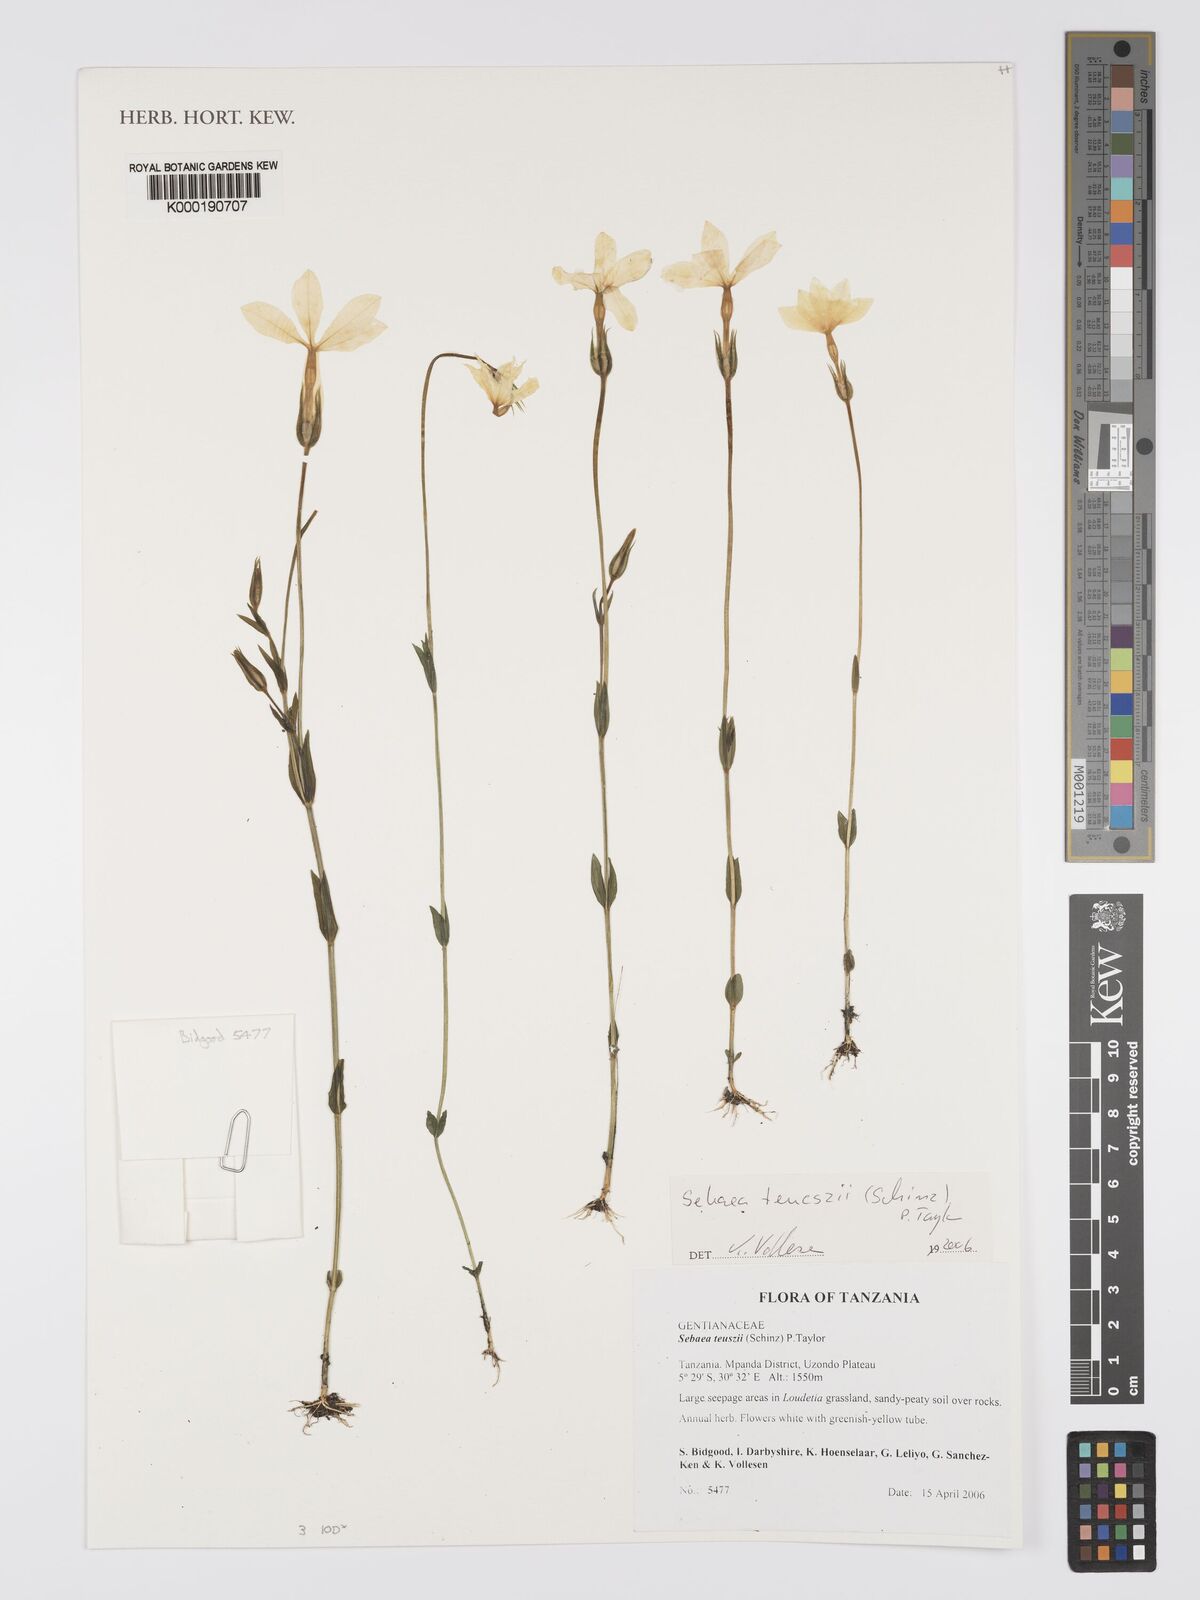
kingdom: Plantae
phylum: Tracheophyta
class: Magnoliopsida
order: Gentianales
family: Gentianaceae
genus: Exochaenium
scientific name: Exochaenium teuszii
